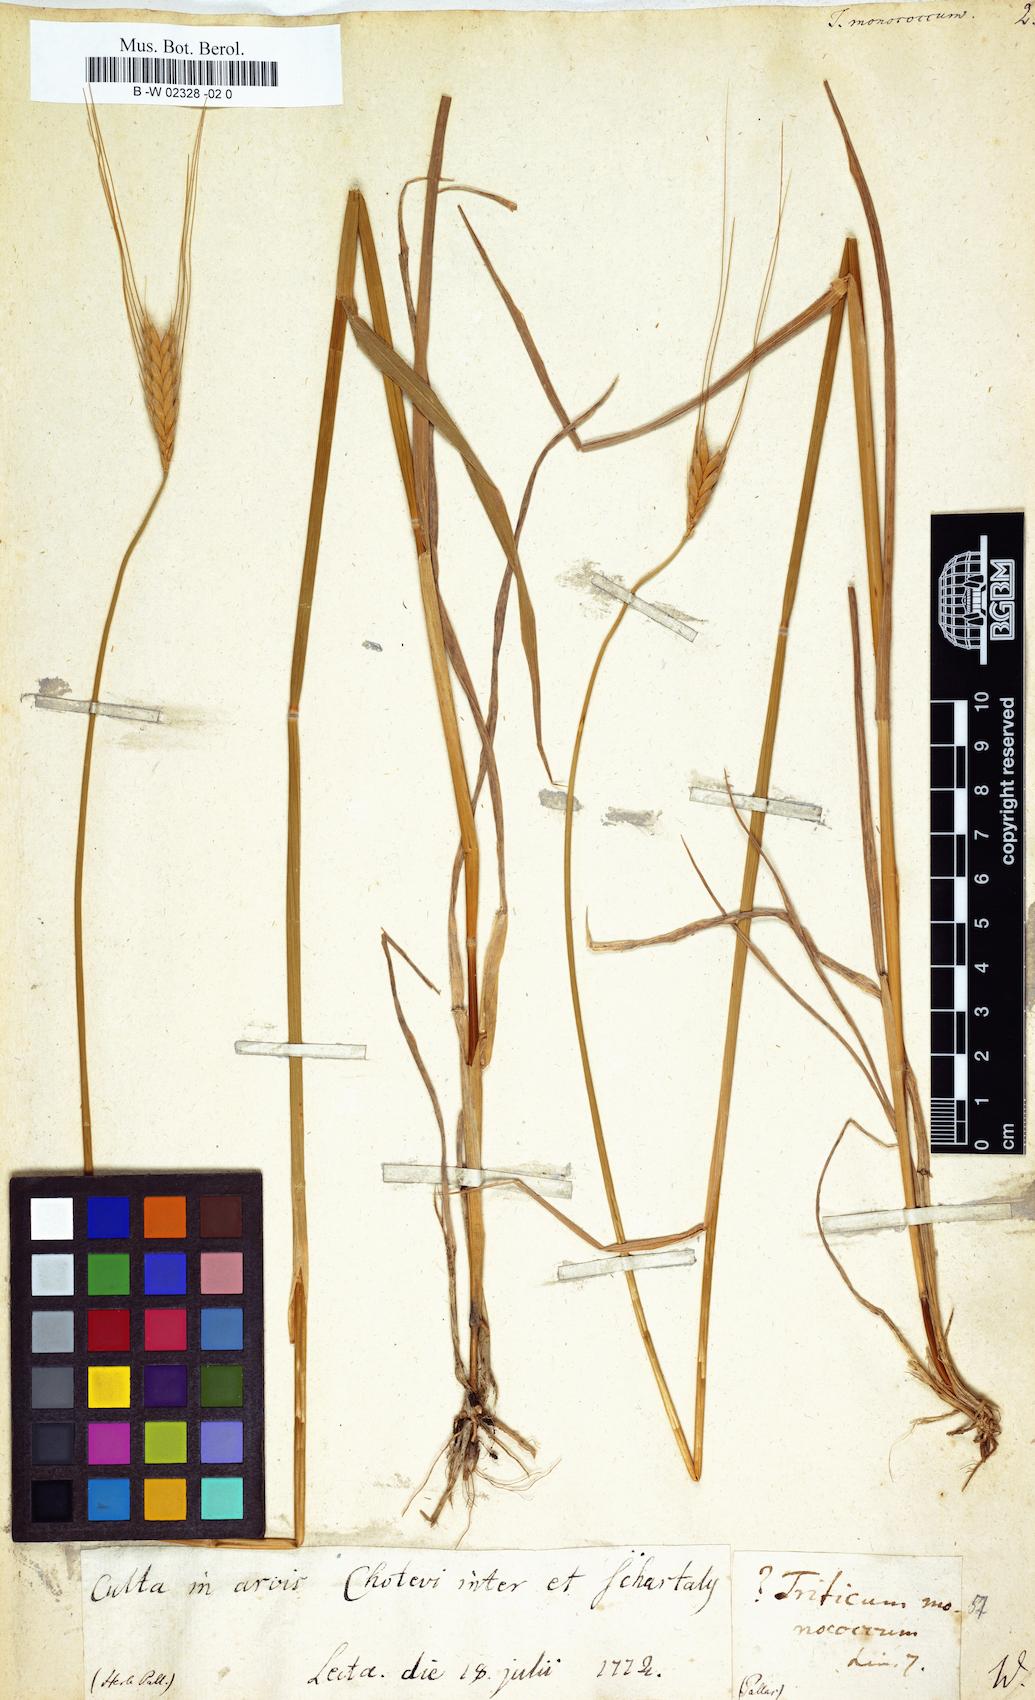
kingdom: Plantae
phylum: Tracheophyta
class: Liliopsida
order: Poales
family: Poaceae
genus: Triticum
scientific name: Triticum monococcum
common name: Einkorn
